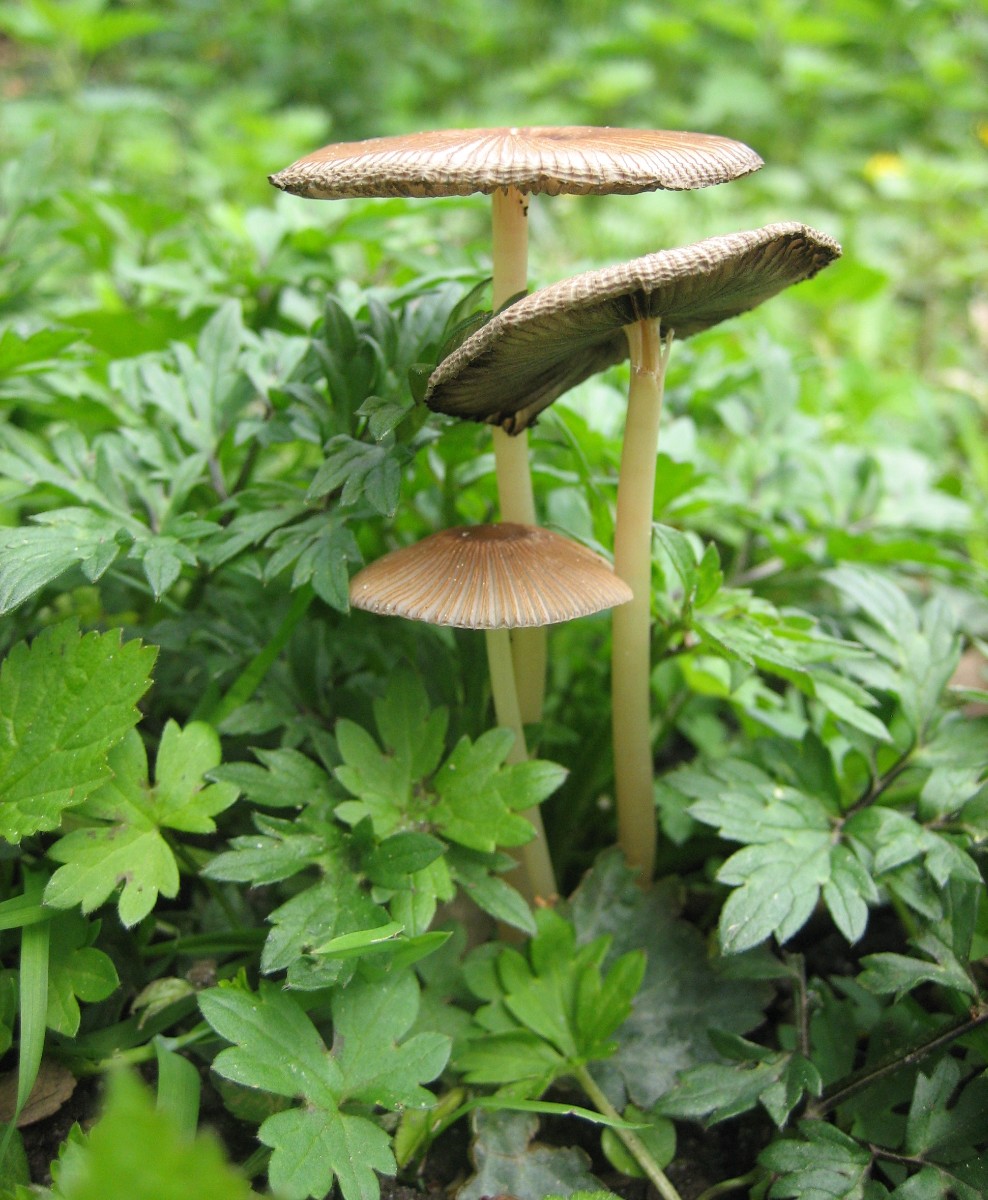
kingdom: Fungi
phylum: Basidiomycota
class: Agaricomycetes
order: Agaricales
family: Psathyrellaceae
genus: Parasola
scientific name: Parasola
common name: hjulhat
